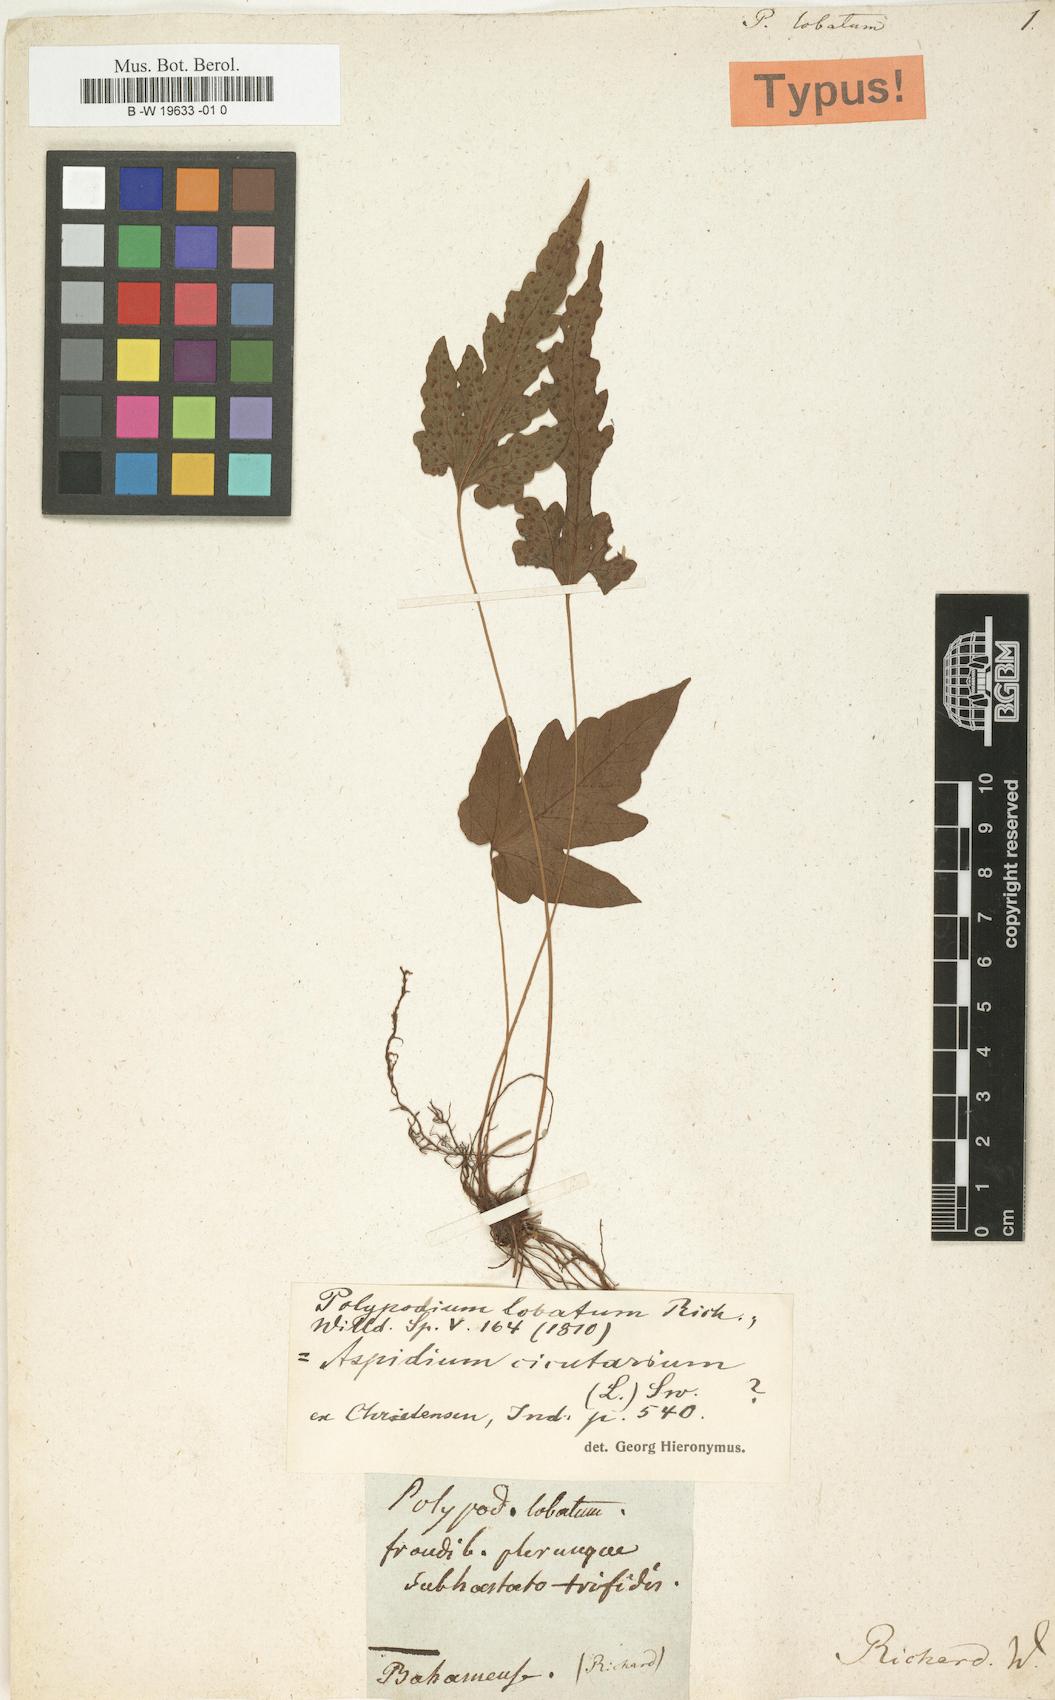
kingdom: Plantae
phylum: Tracheophyta
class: Polypodiopsida
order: Polypodiales
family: Tectariaceae
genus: Tectaria
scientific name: Tectaria fimbriata
